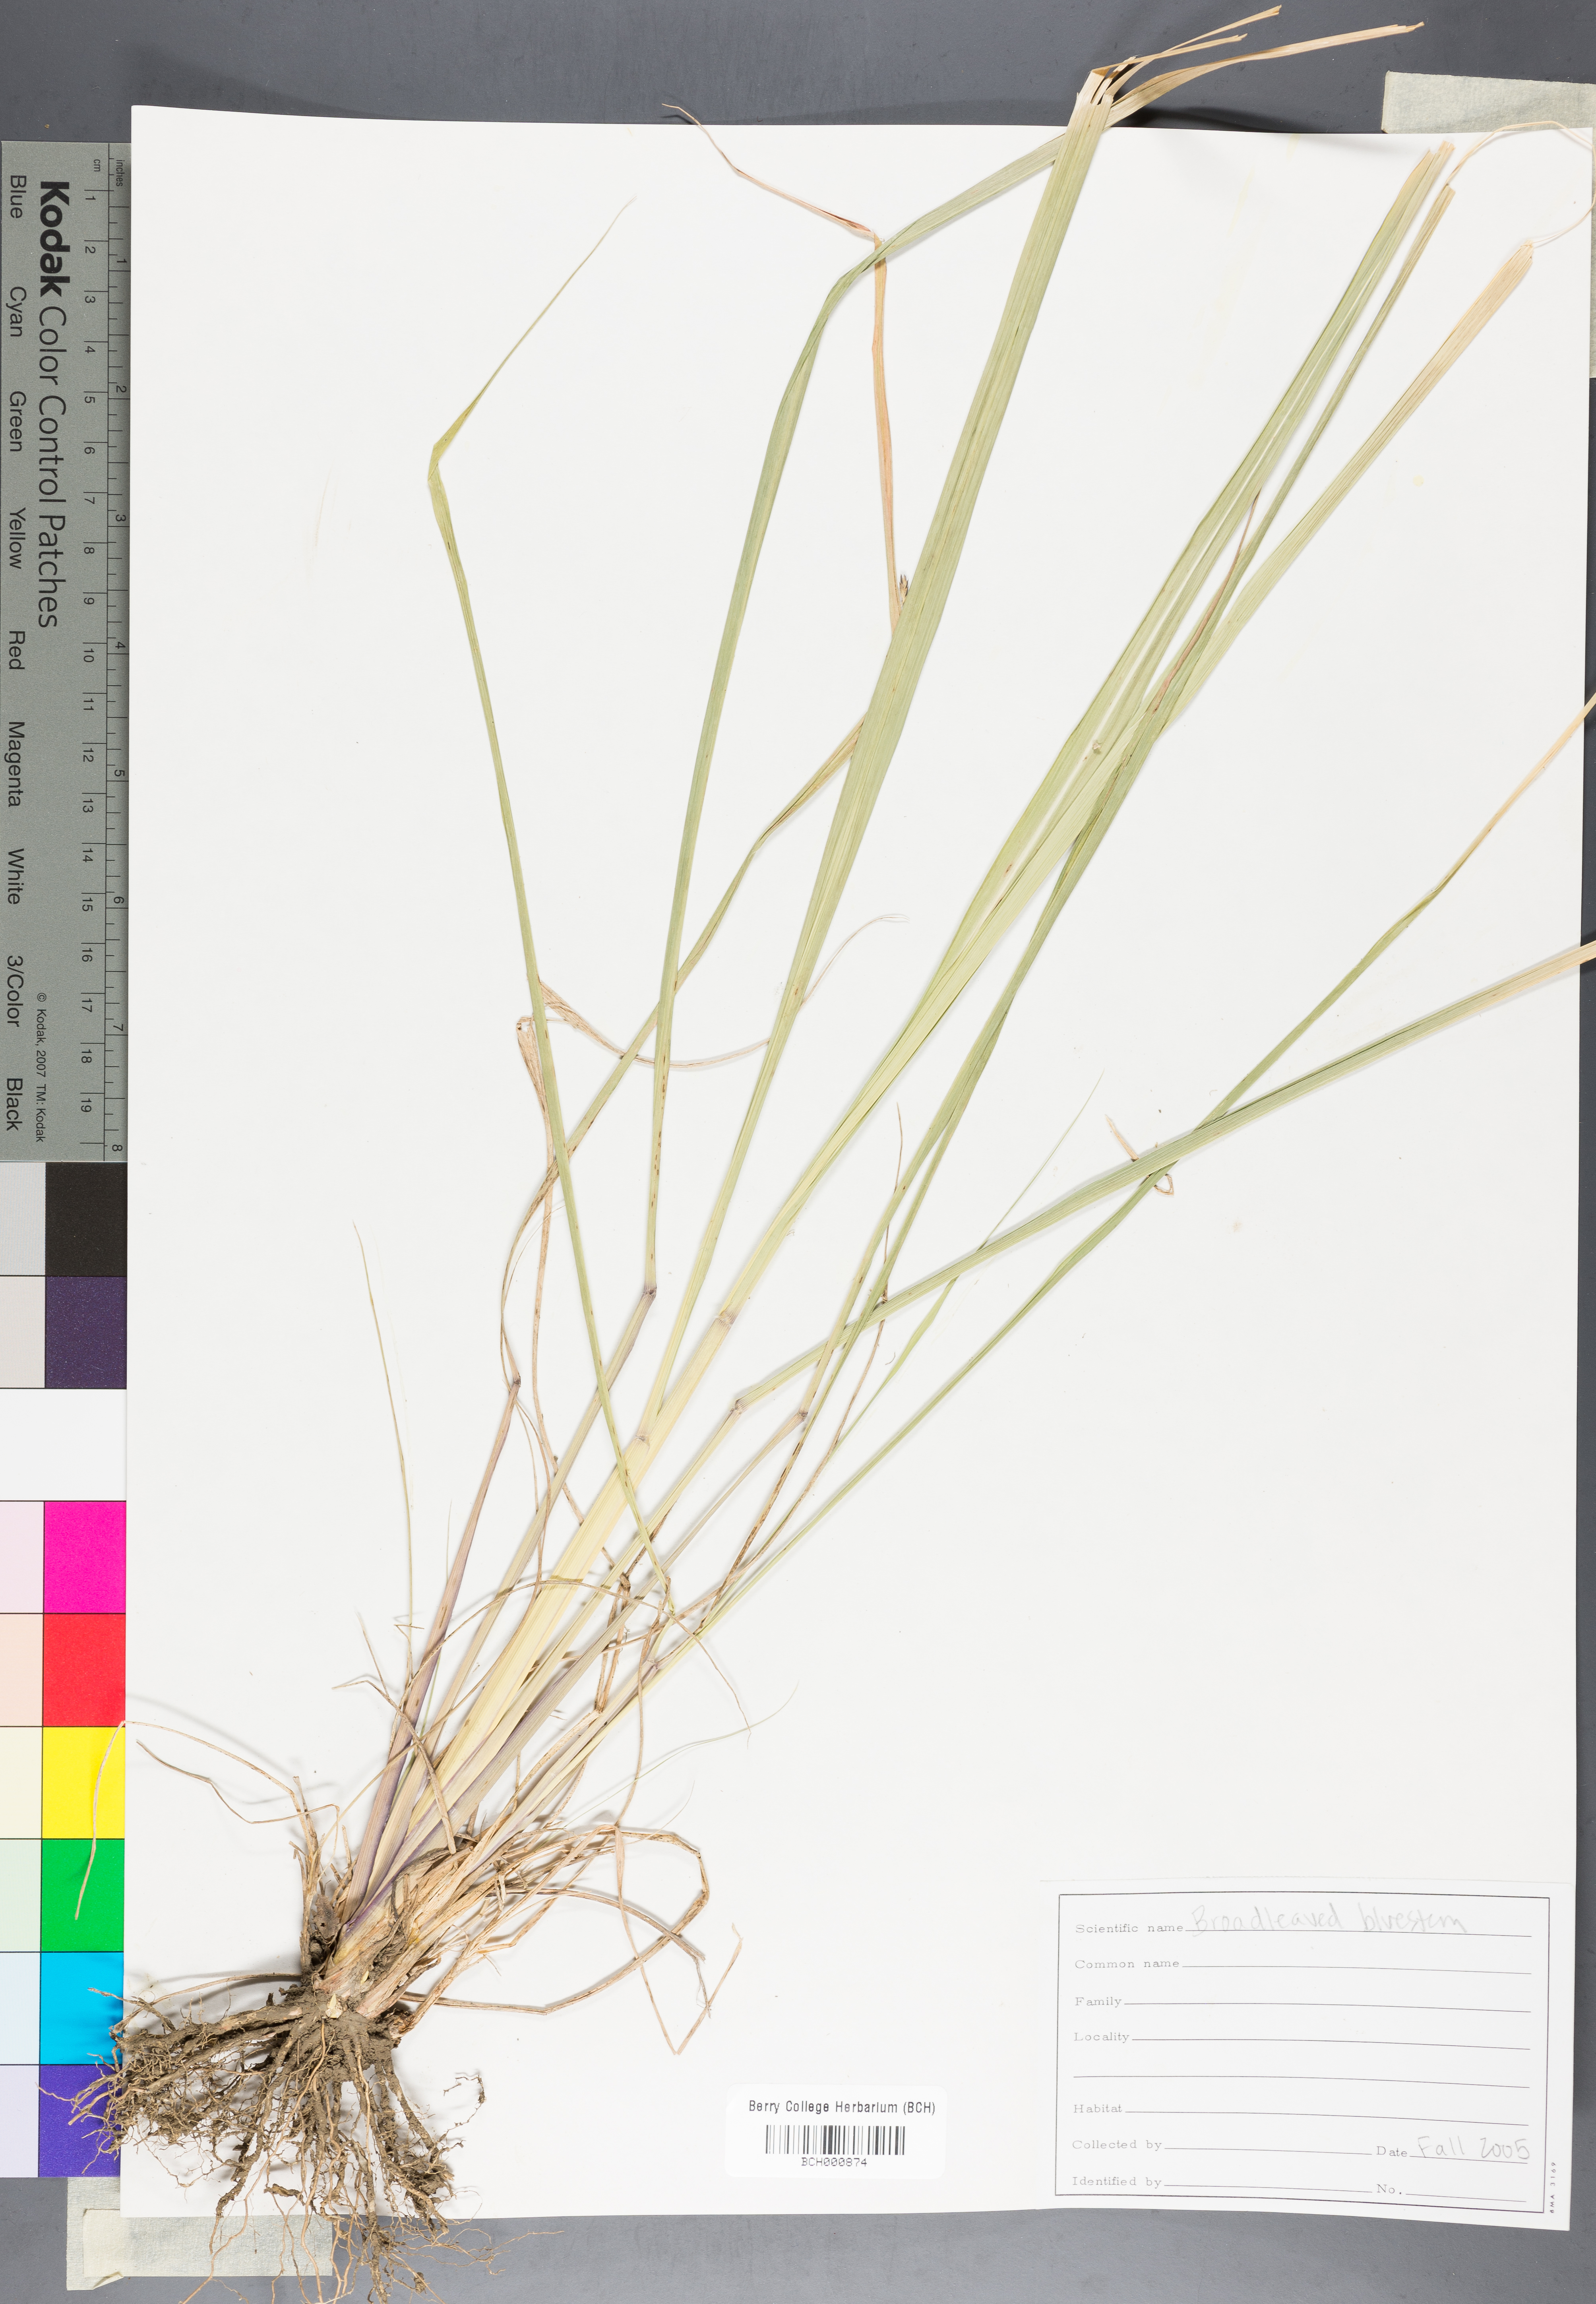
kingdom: Plantae
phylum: Tracheophyta
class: Magnoliopsida
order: Lamiales
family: Acanthaceae
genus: Adhatoda
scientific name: Adhatoda
